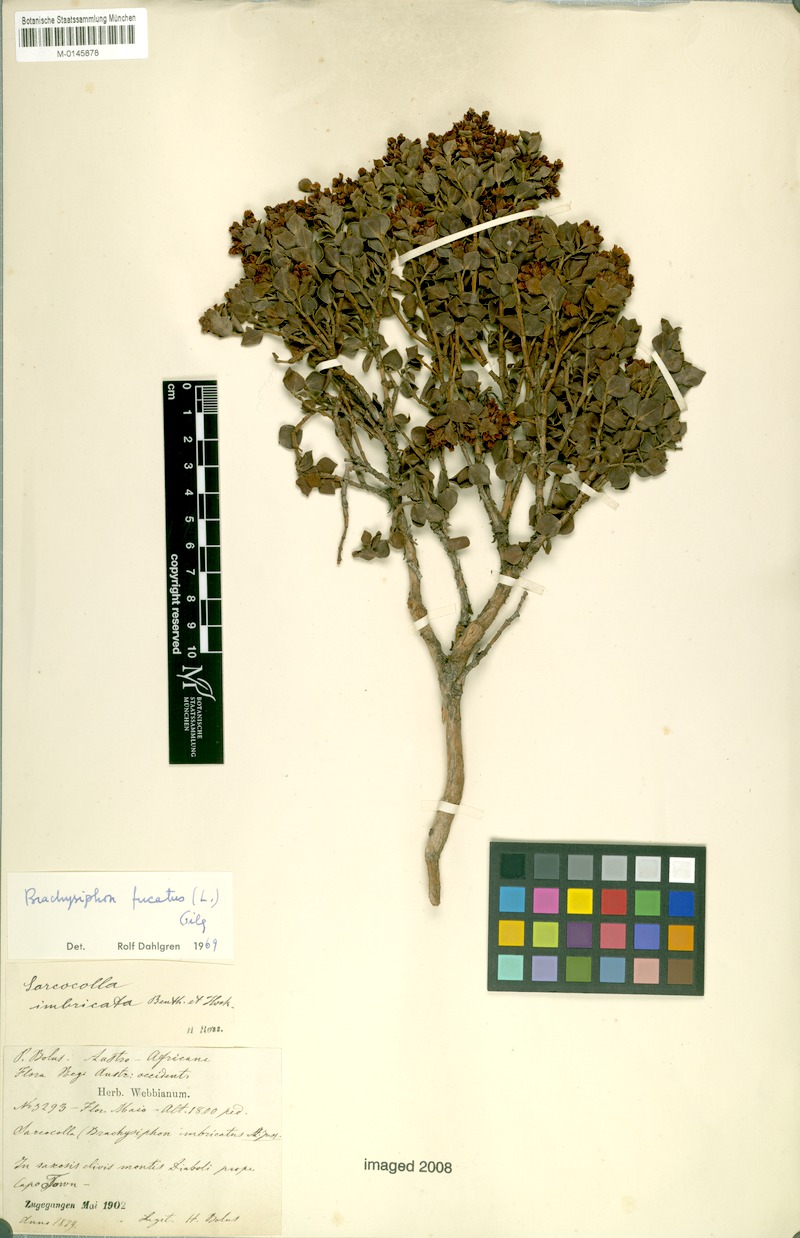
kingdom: Plantae
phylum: Tracheophyta
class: Magnoliopsida
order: Myrtales
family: Penaeaceae
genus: Brachysiphon
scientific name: Brachysiphon fucatus
